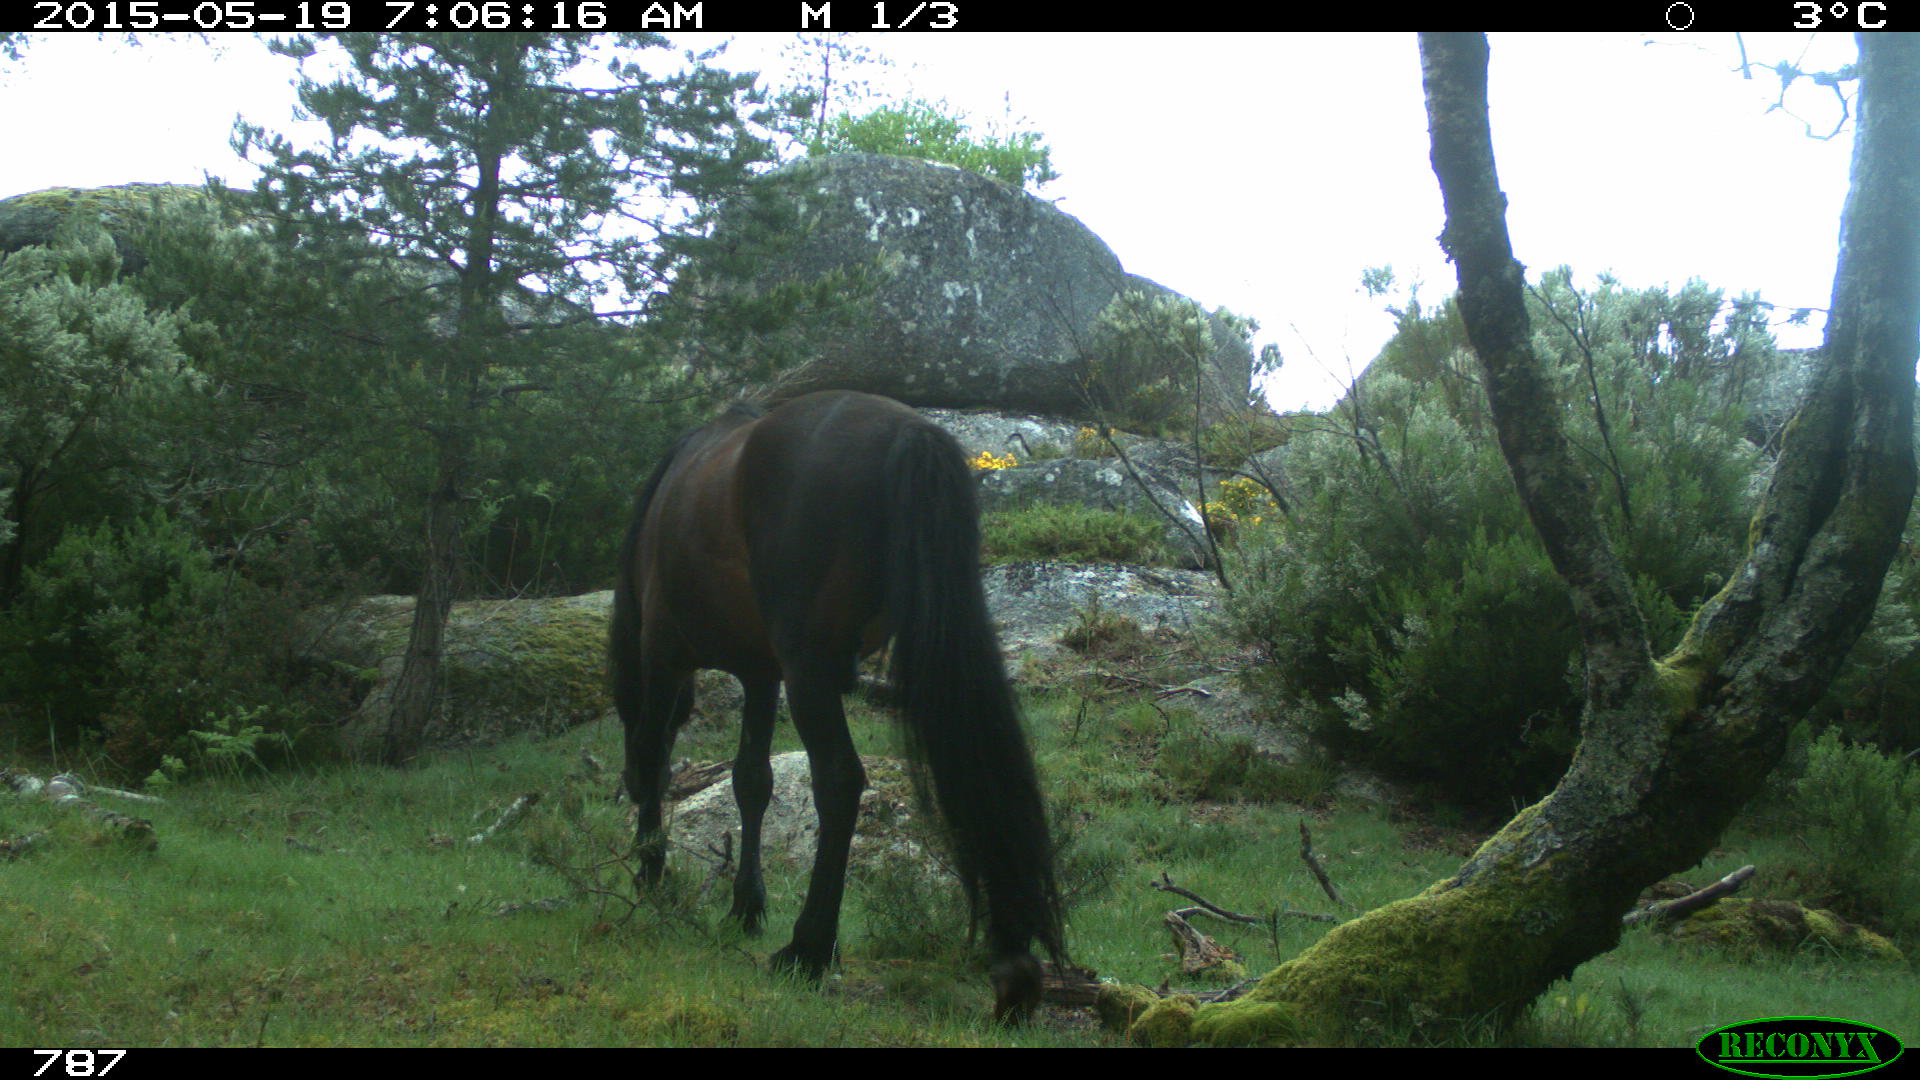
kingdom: Animalia
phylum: Chordata
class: Mammalia
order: Perissodactyla
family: Equidae
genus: Equus
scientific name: Equus caballus
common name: Horse
